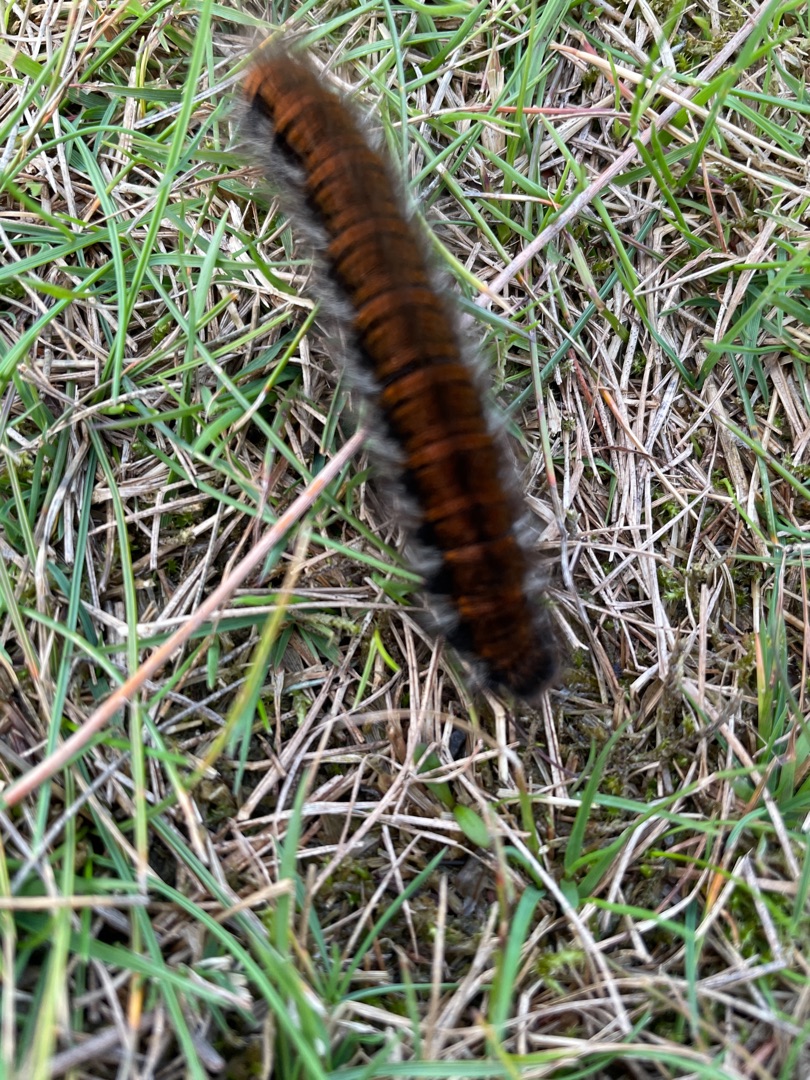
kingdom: Animalia
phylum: Arthropoda
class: Insecta
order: Lepidoptera
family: Lasiocampidae
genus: Macrothylacia
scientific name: Macrothylacia rubi
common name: Brombærspinder
